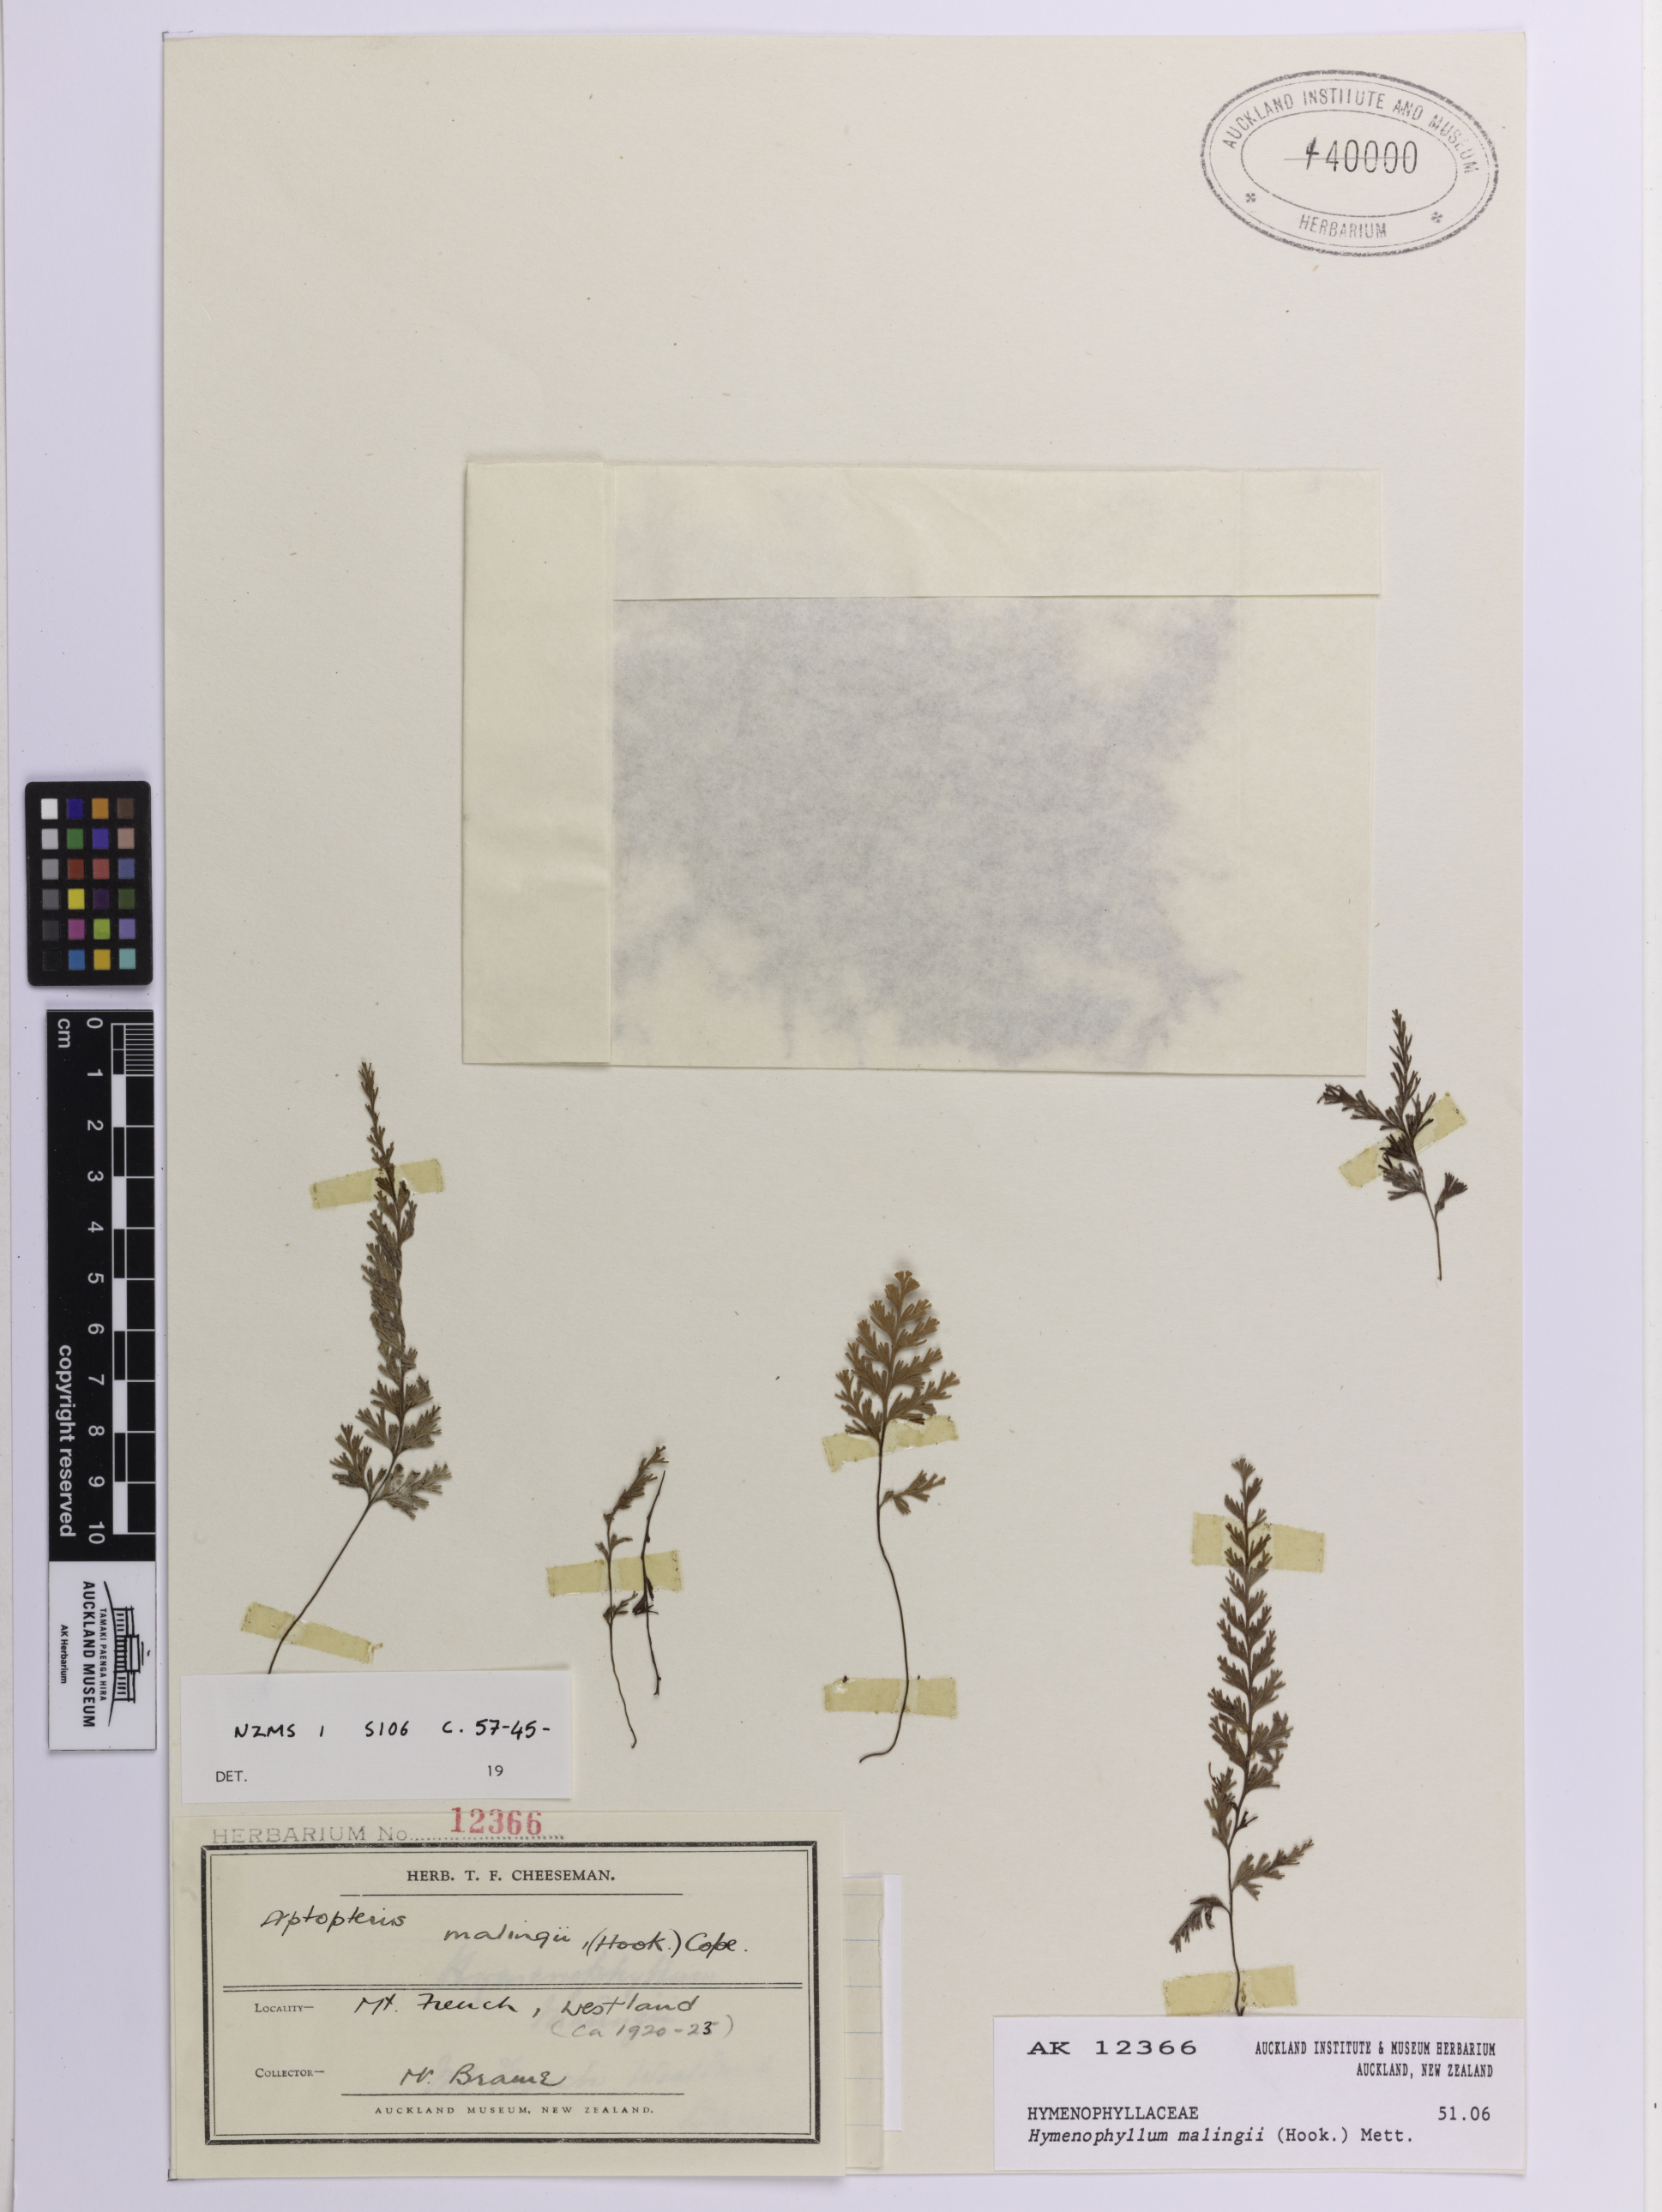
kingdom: Plantae
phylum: Tracheophyta
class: Polypodiopsida
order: Hymenophyllales
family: Hymenophyllaceae
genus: Hymenophyllum
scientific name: Hymenophyllum malingii
